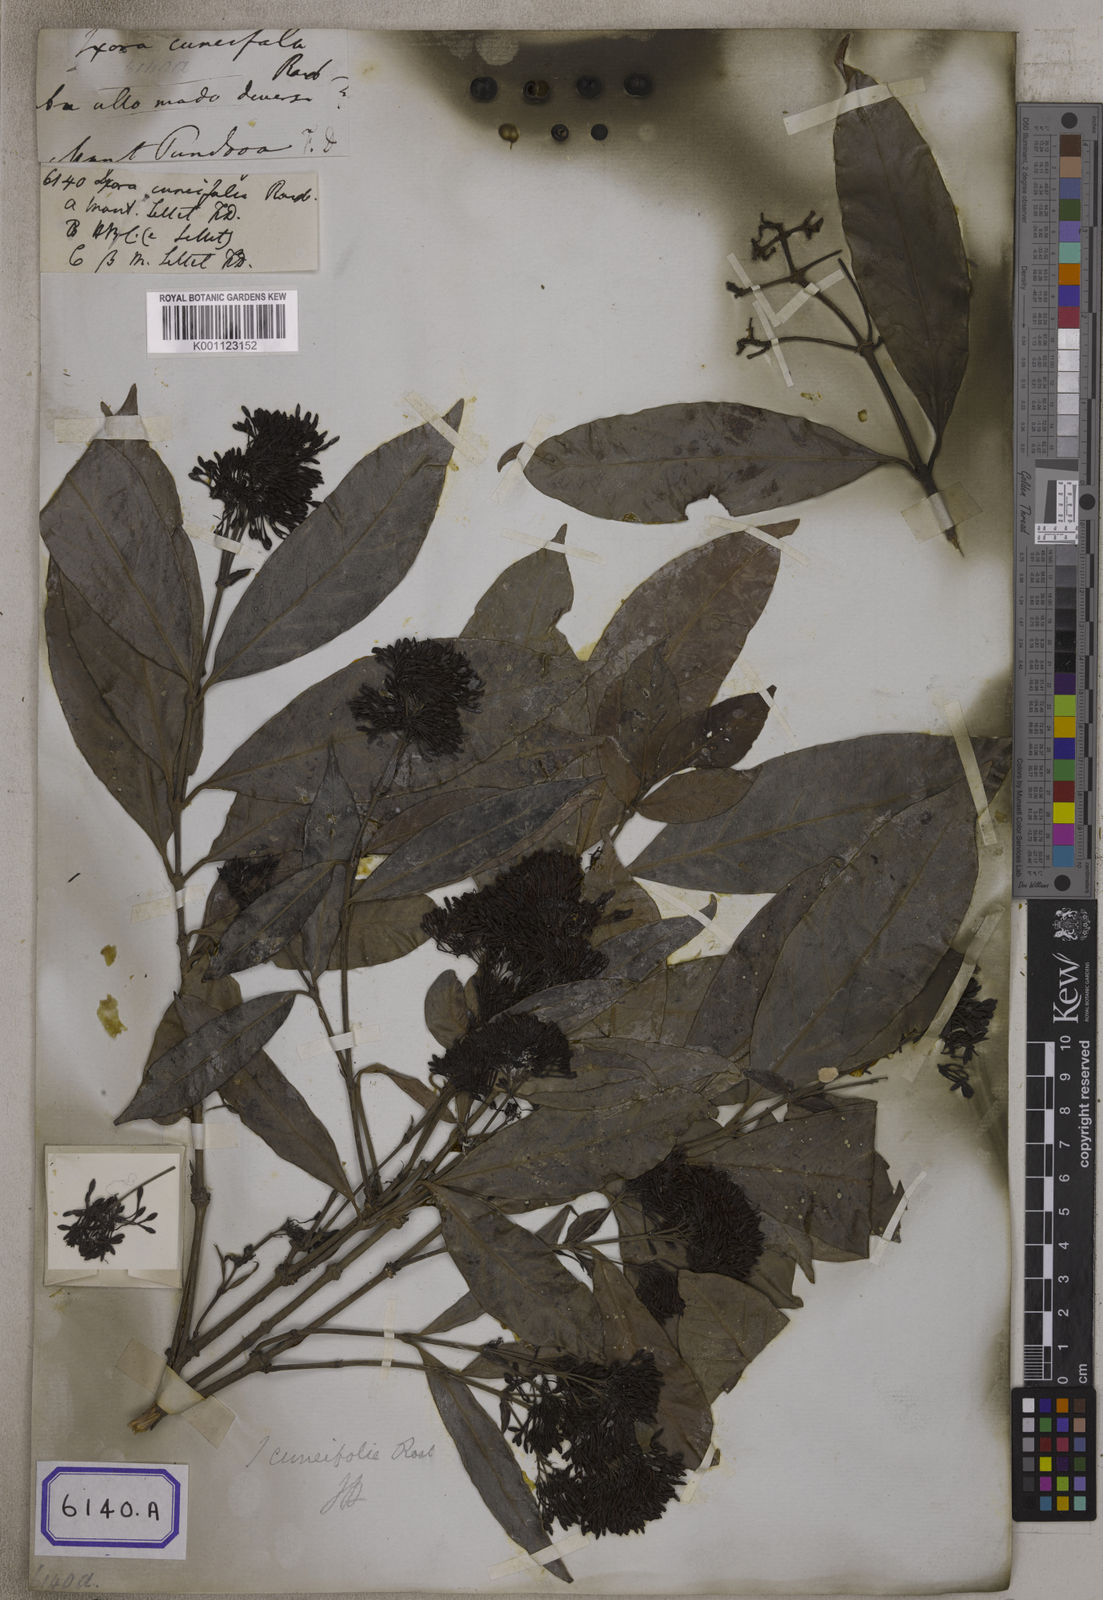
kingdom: Plantae
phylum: Tracheophyta
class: Magnoliopsida
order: Gentianales
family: Rubiaceae
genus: Ixora
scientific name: Ixora cuneifolia
